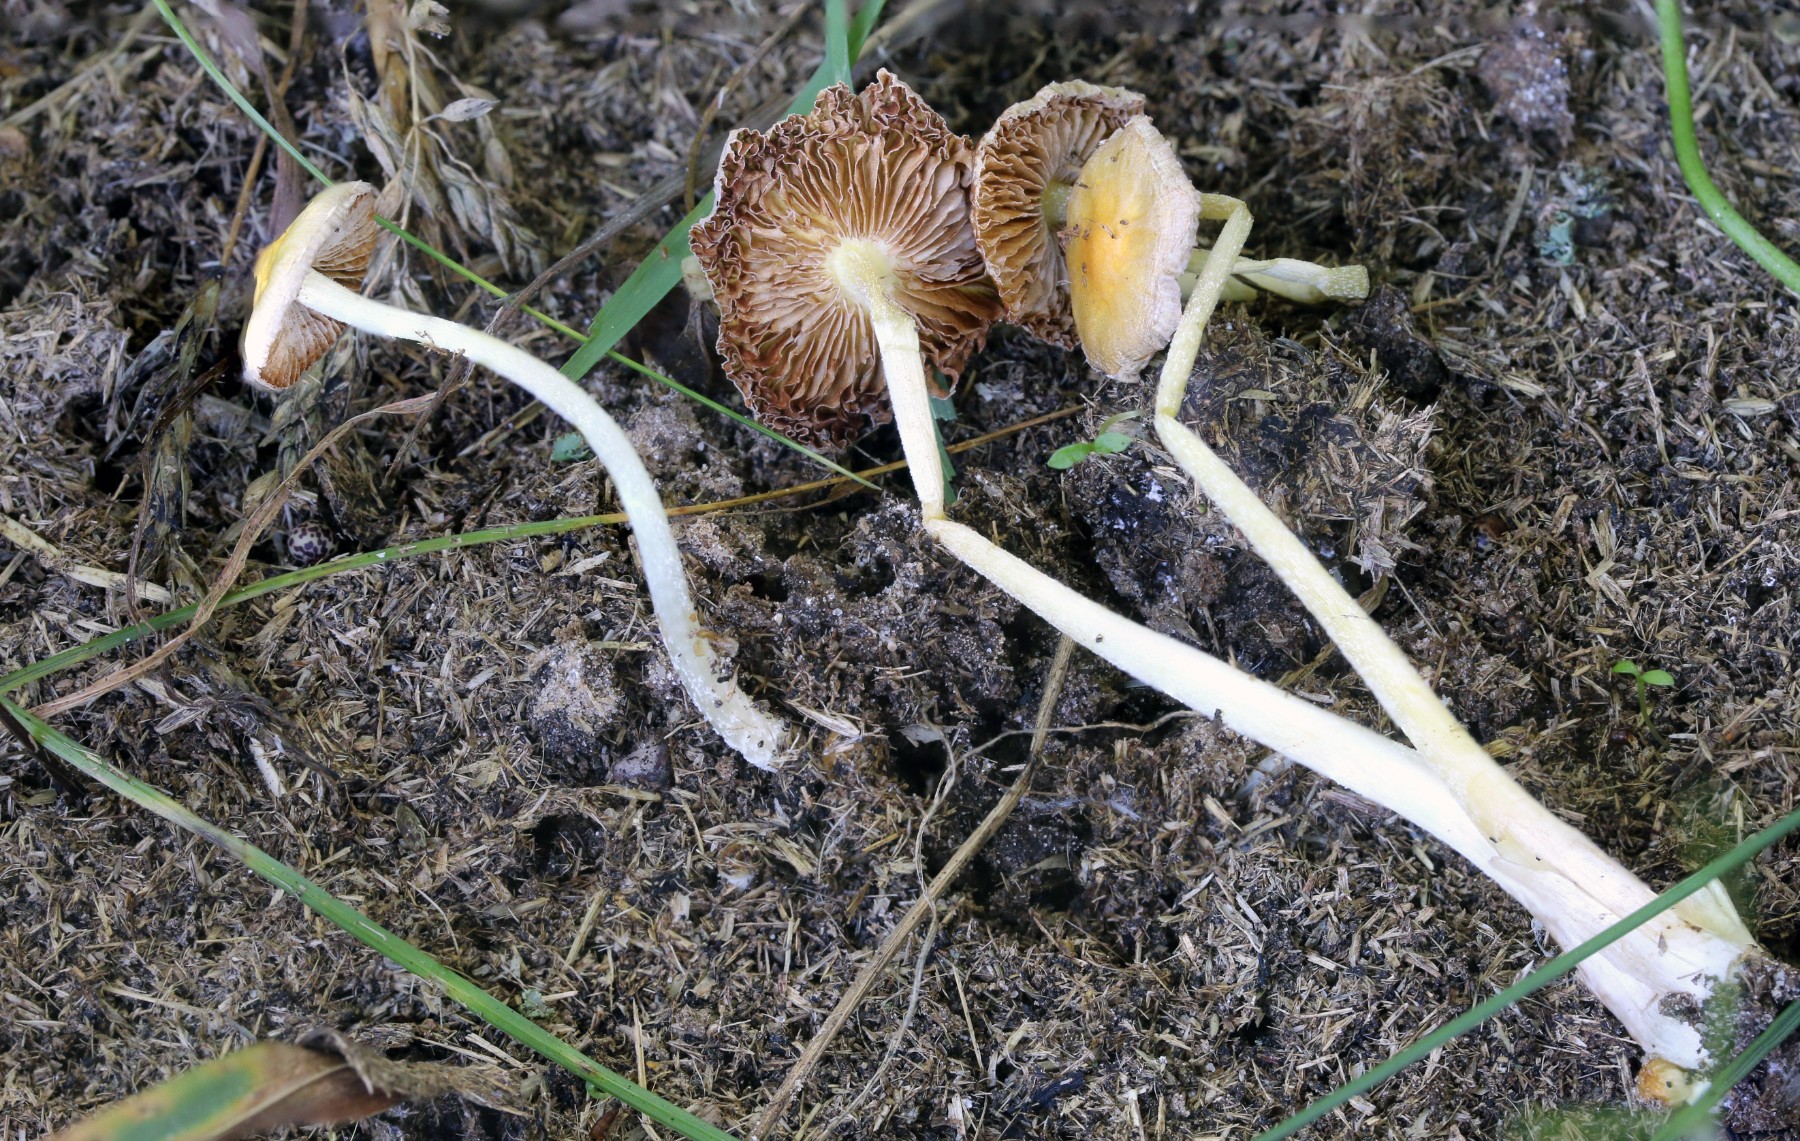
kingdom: Fungi
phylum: Basidiomycota
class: Agaricomycetes
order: Agaricales
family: Bolbitiaceae
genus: Bolbitius
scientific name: Bolbitius titubans
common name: almindelig gulhat
